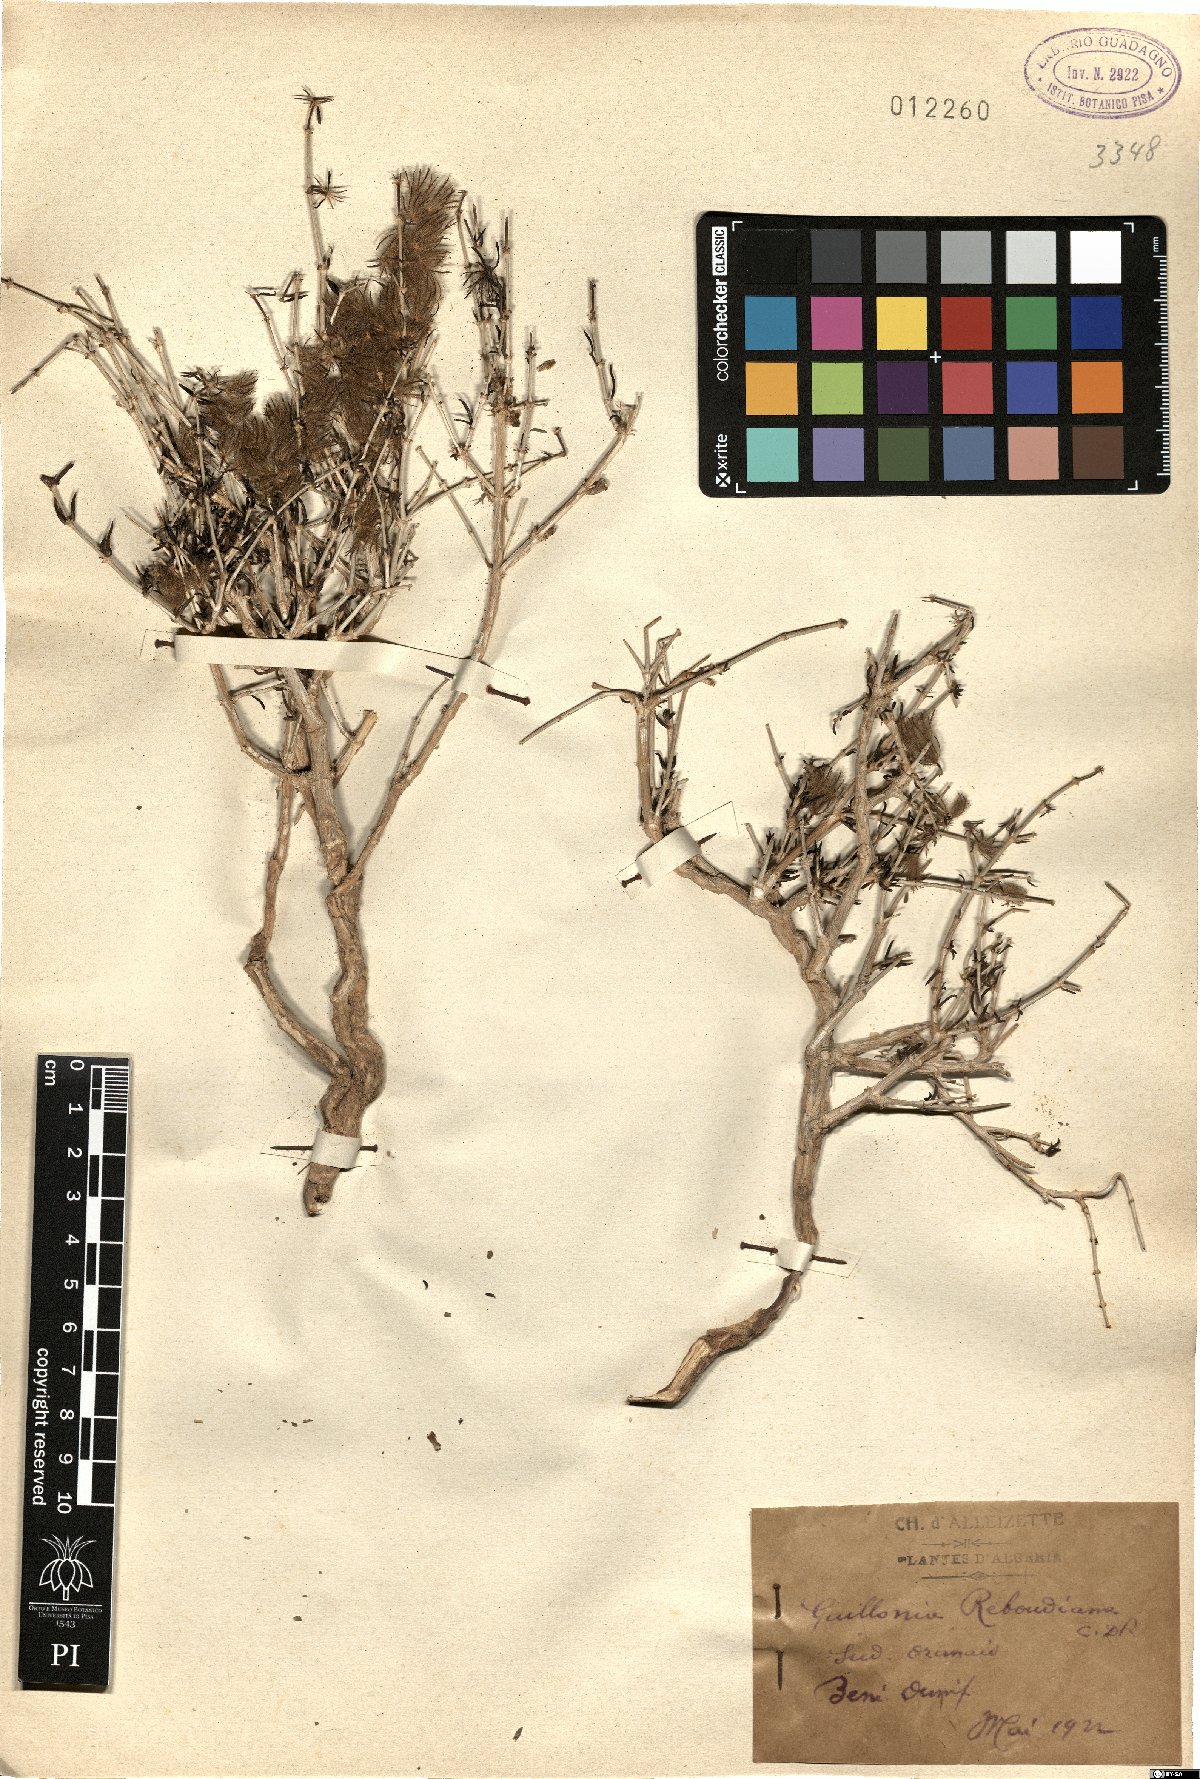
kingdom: Plantae
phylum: Tracheophyta
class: Magnoliopsida
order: Apiales
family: Apiaceae
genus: Thapsia
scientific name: Thapsia
